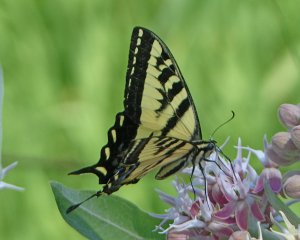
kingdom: Animalia
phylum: Arthropoda
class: Insecta
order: Lepidoptera
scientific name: Lepidoptera
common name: Butterflies
